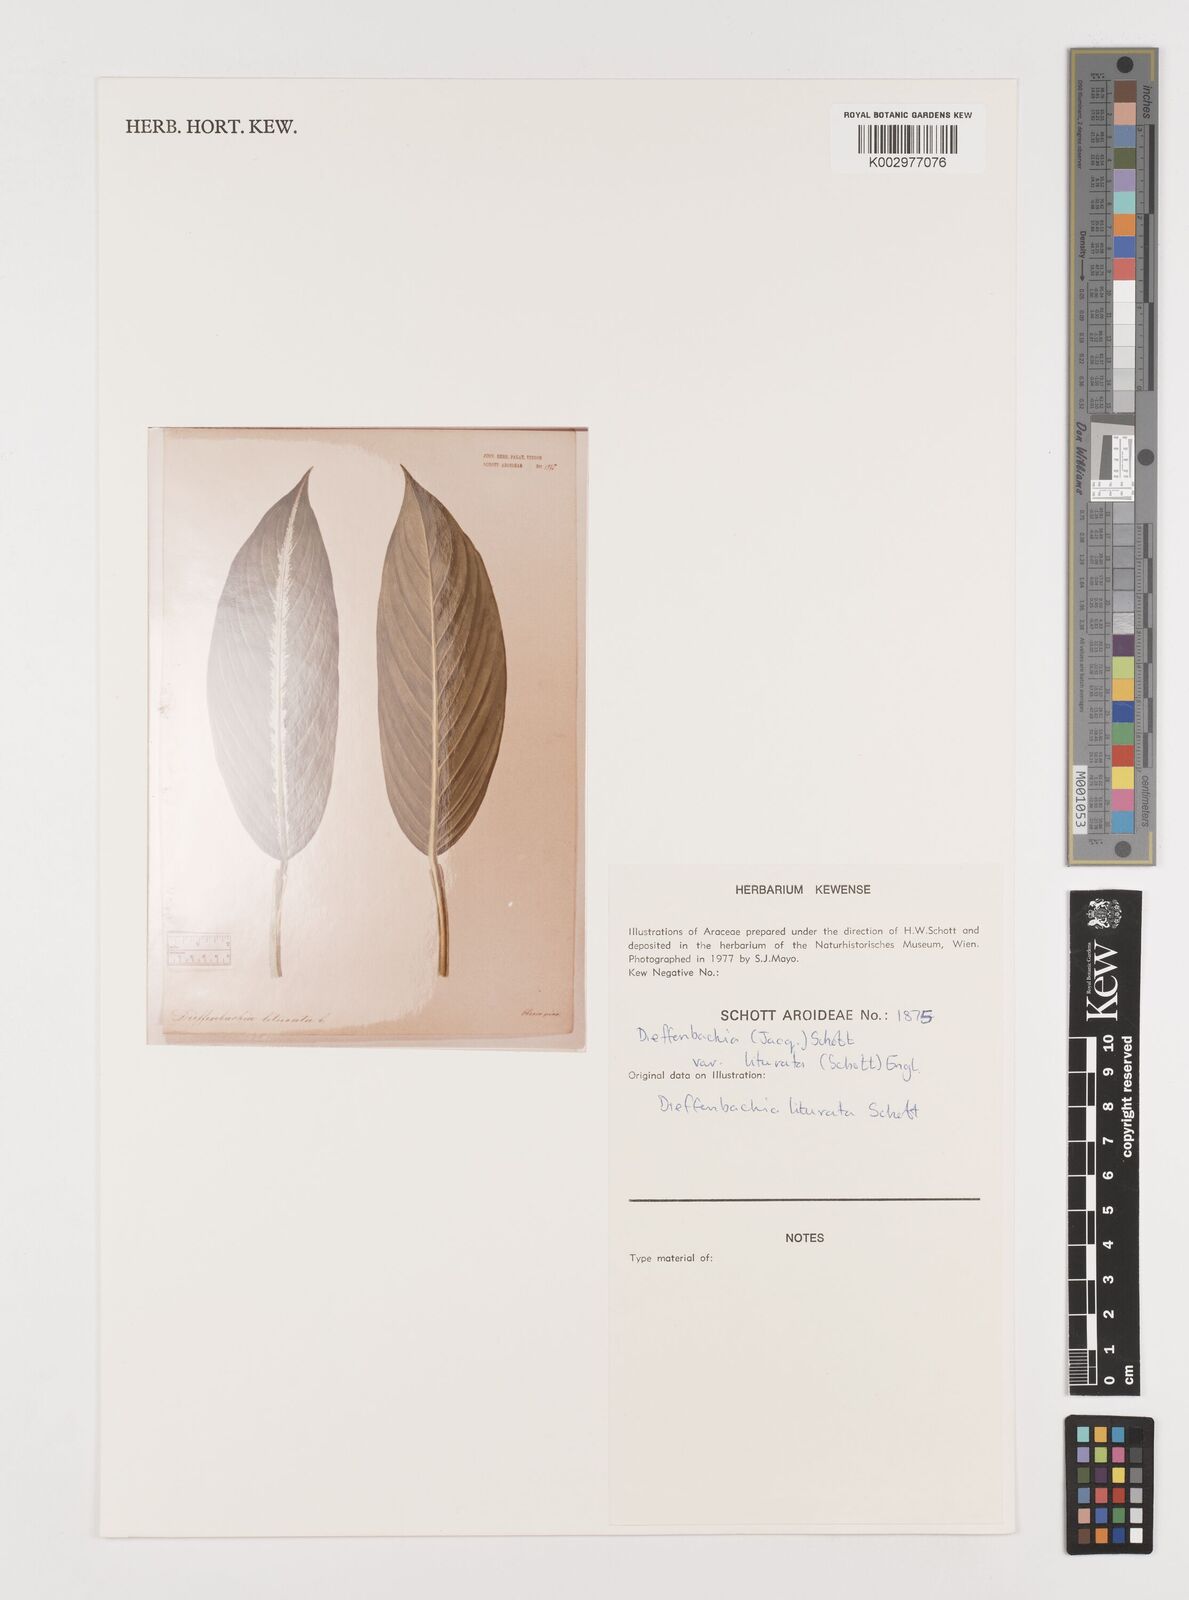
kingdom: Plantae
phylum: Tracheophyta
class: Liliopsida
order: Alismatales
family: Araceae
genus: Dieffenbachia
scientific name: Dieffenbachia seguine
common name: Dumbcane
